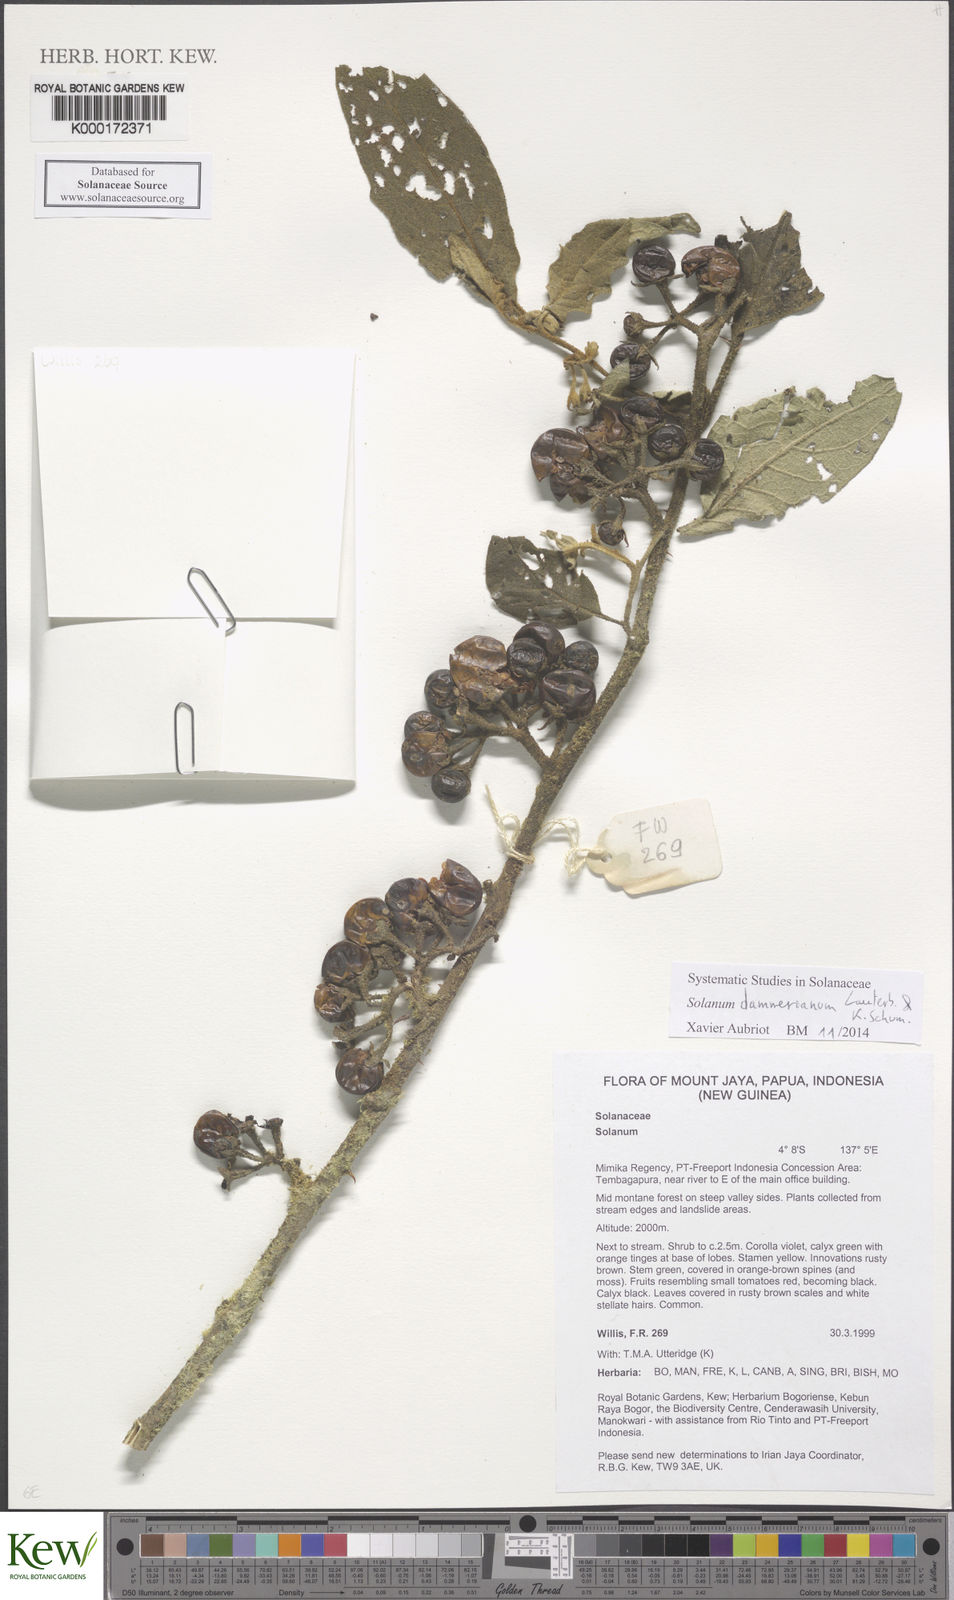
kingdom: Plantae
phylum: Tracheophyta
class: Magnoliopsida
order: Solanales
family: Solanaceae
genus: Solanum
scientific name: Solanum dammerianum
